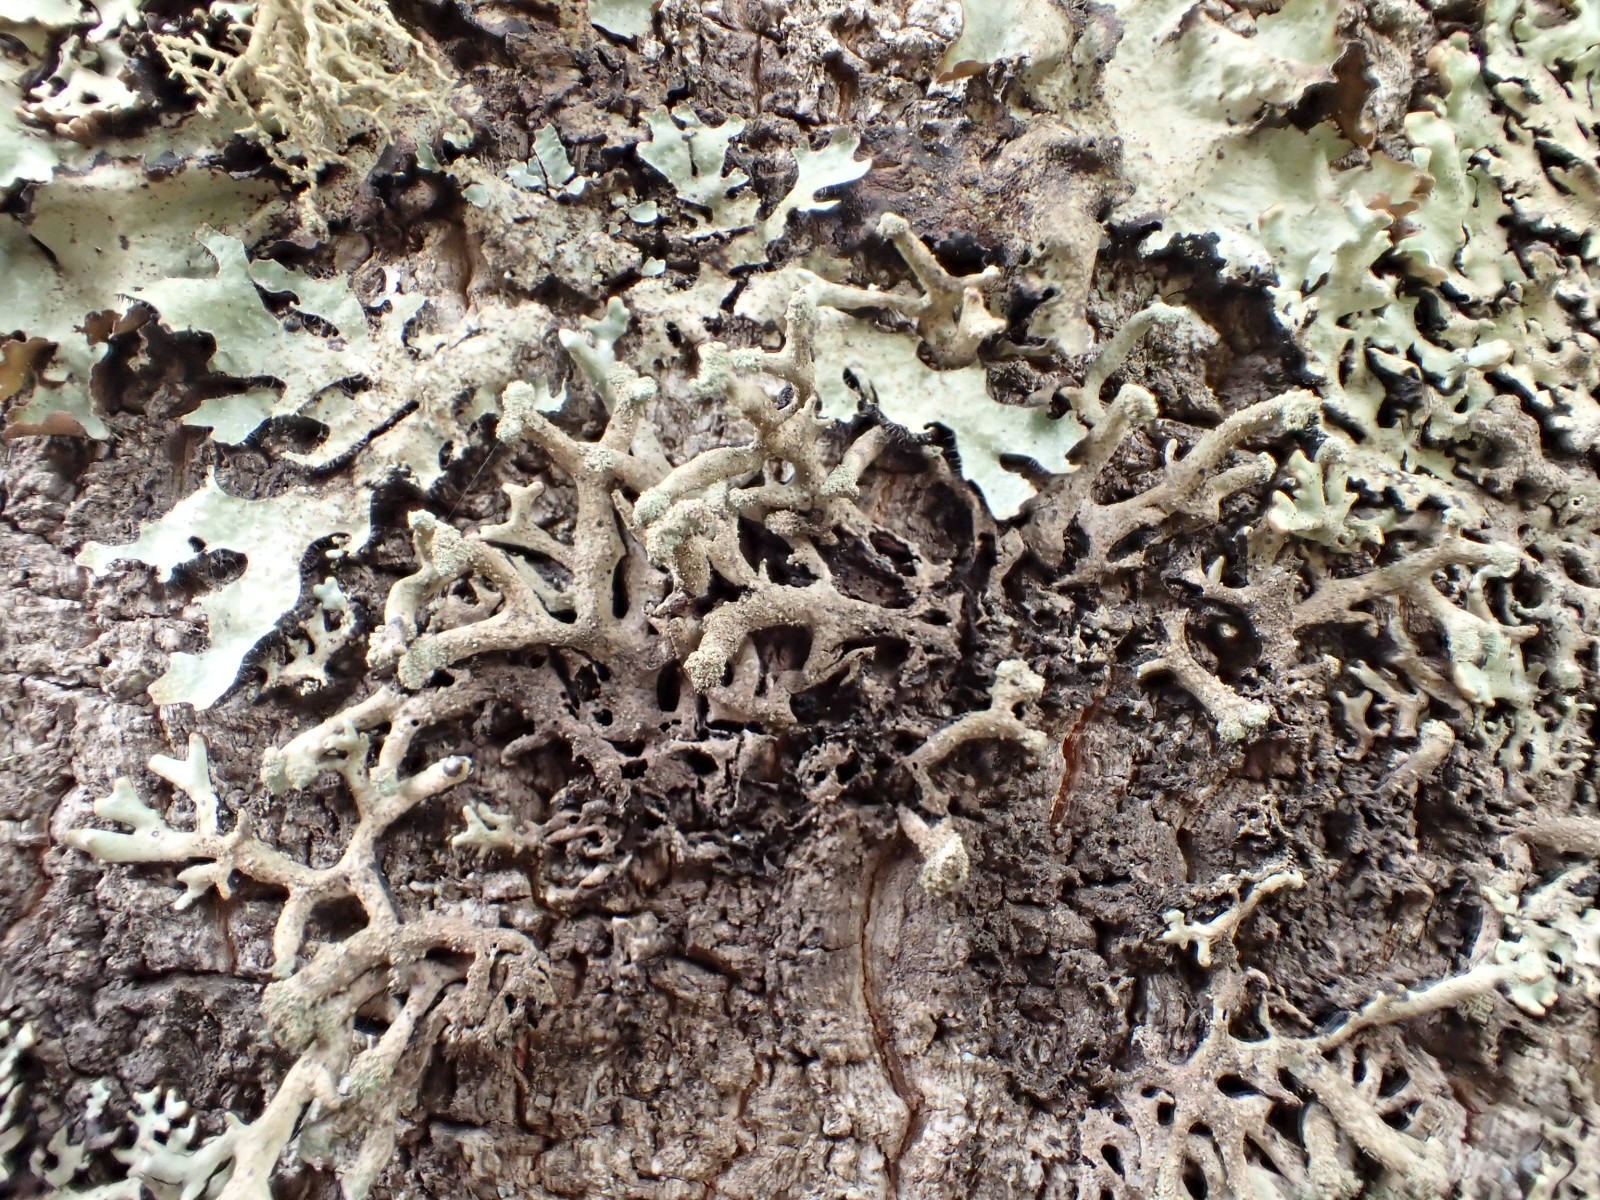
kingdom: Fungi
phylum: Ascomycota
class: Lecanoromycetes
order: Lecanorales
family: Parmeliaceae
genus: Hypogymnia
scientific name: Hypogymnia tubulosa
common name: finger-kvistlav
